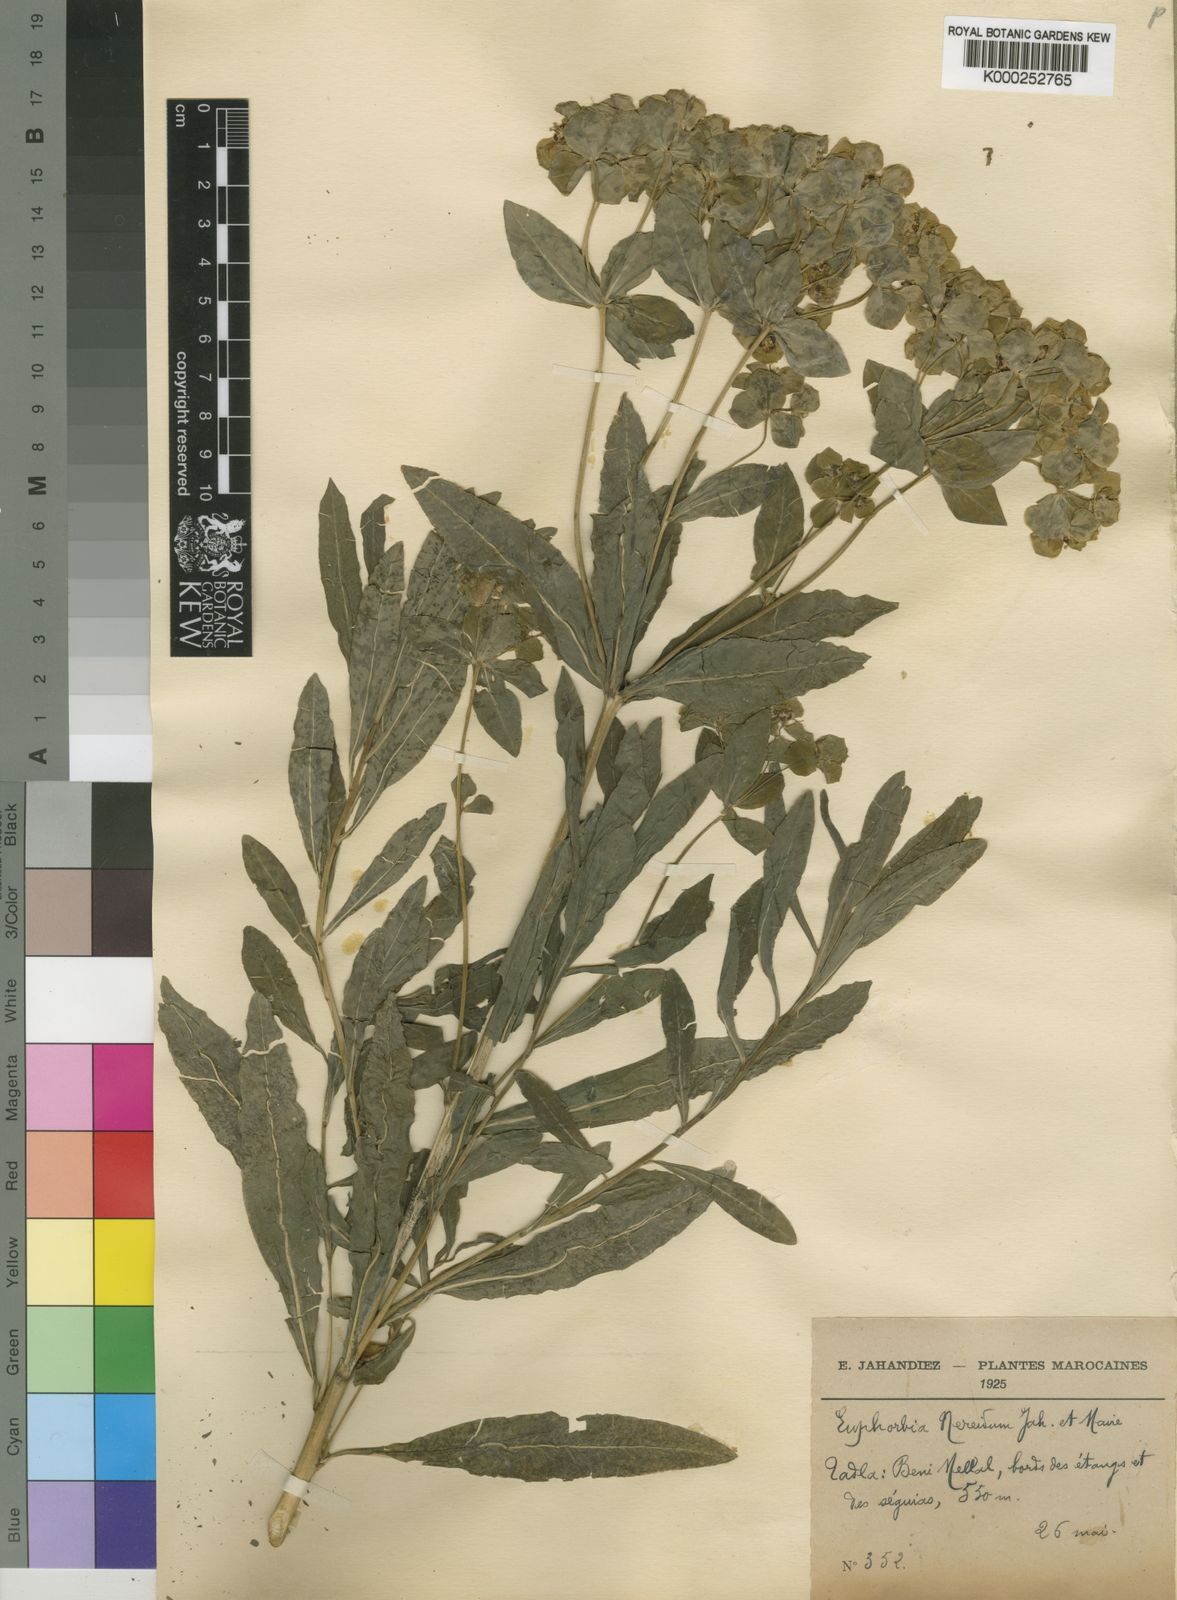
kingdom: Plantae
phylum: Tracheophyta
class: Magnoliopsida
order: Malpighiales
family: Euphorbiaceae
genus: Euphorbia
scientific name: Euphorbia nereidum
